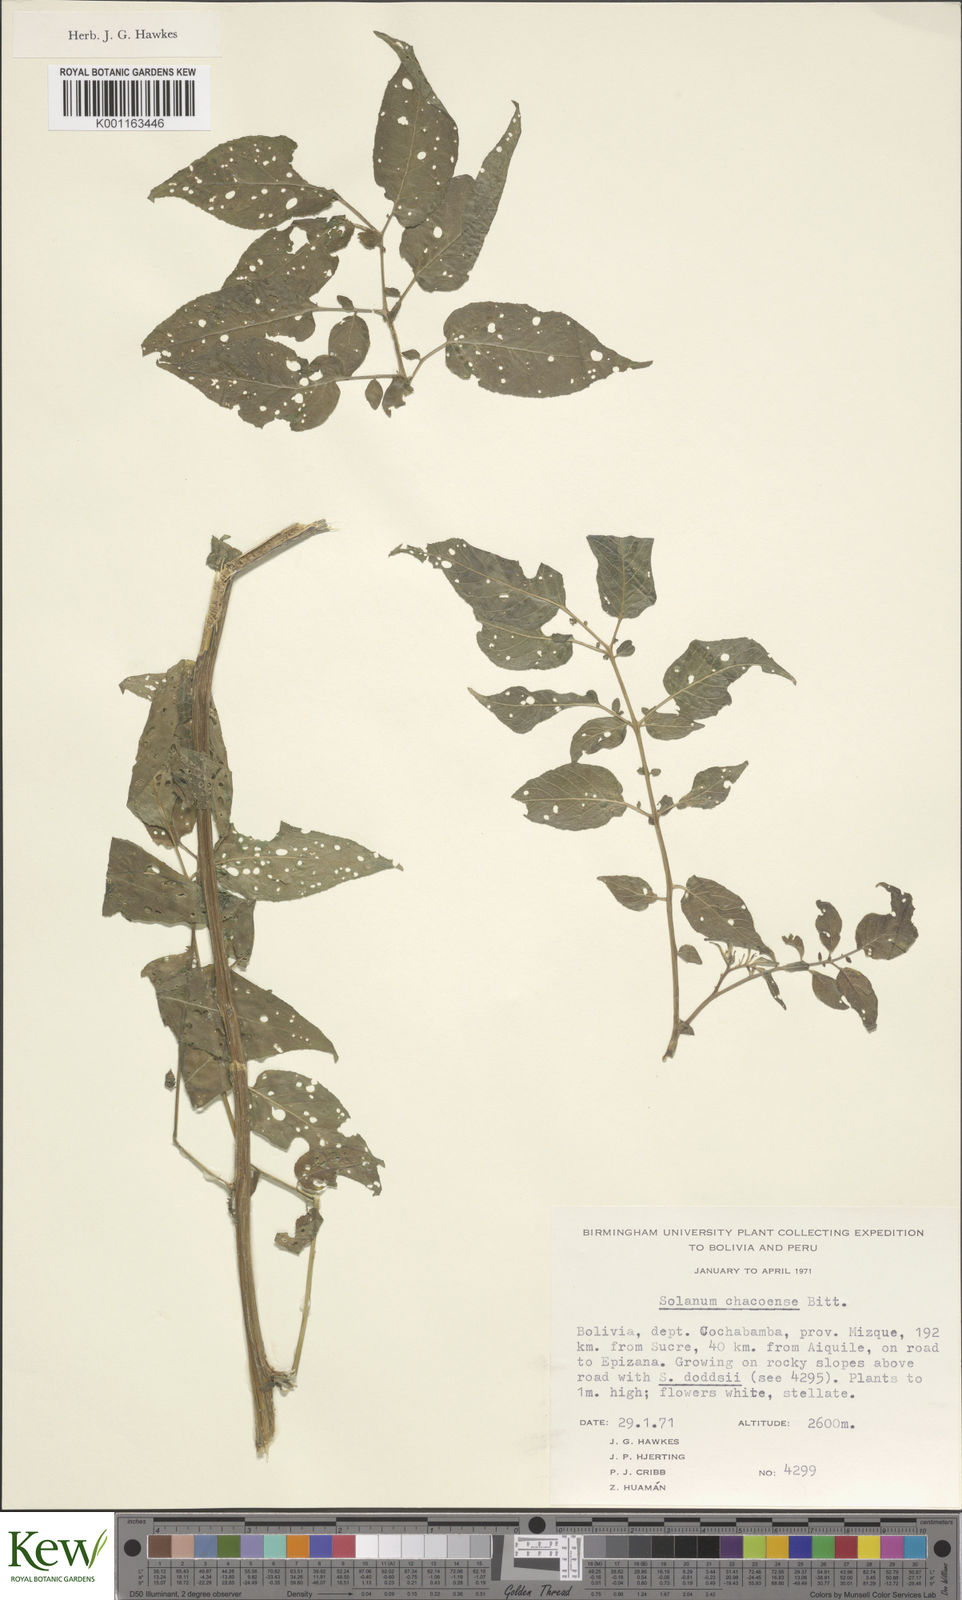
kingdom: Plantae
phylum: Tracheophyta
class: Magnoliopsida
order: Solanales
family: Solanaceae
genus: Solanum
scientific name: Solanum chacoense
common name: Chaco potato
